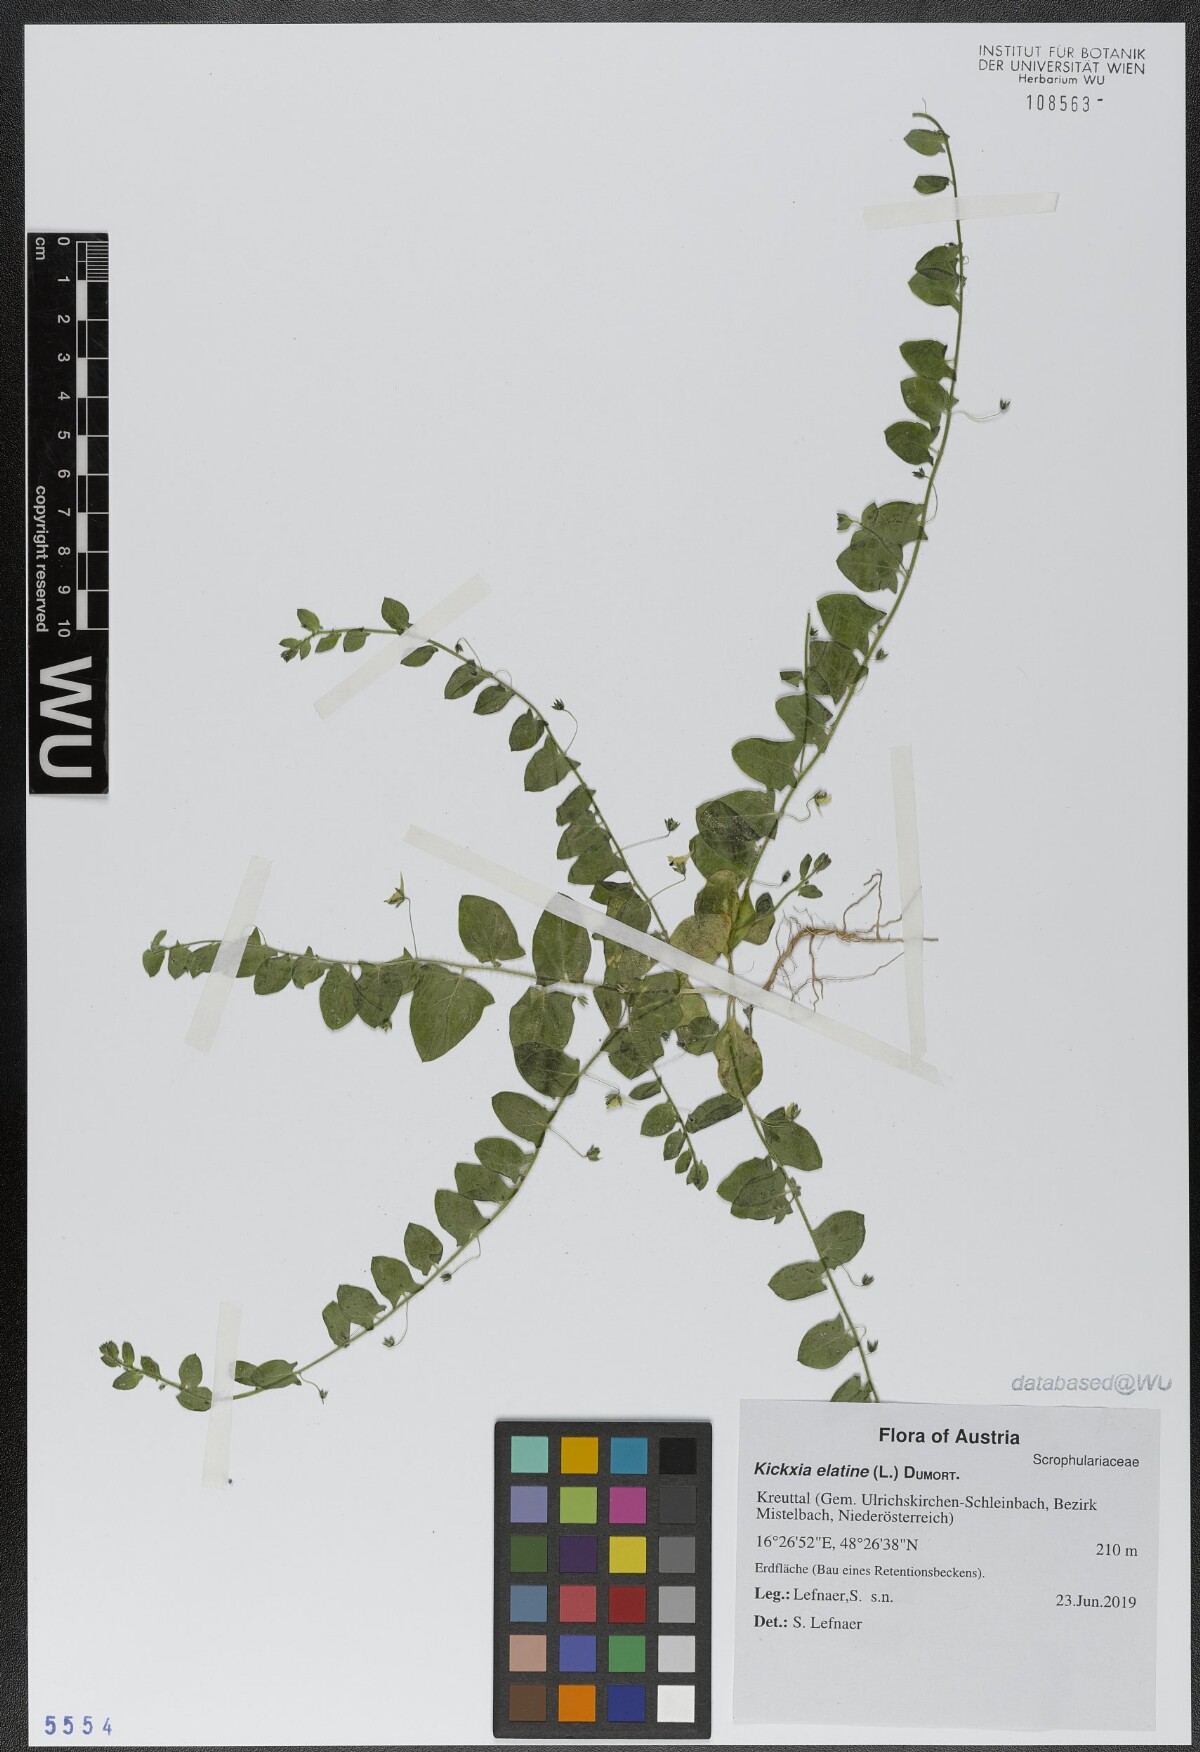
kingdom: Plantae
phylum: Tracheophyta
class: Magnoliopsida
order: Lamiales
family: Plantaginaceae
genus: Kickxia
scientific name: Kickxia elatine
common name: Sharp-leaved fluellen
